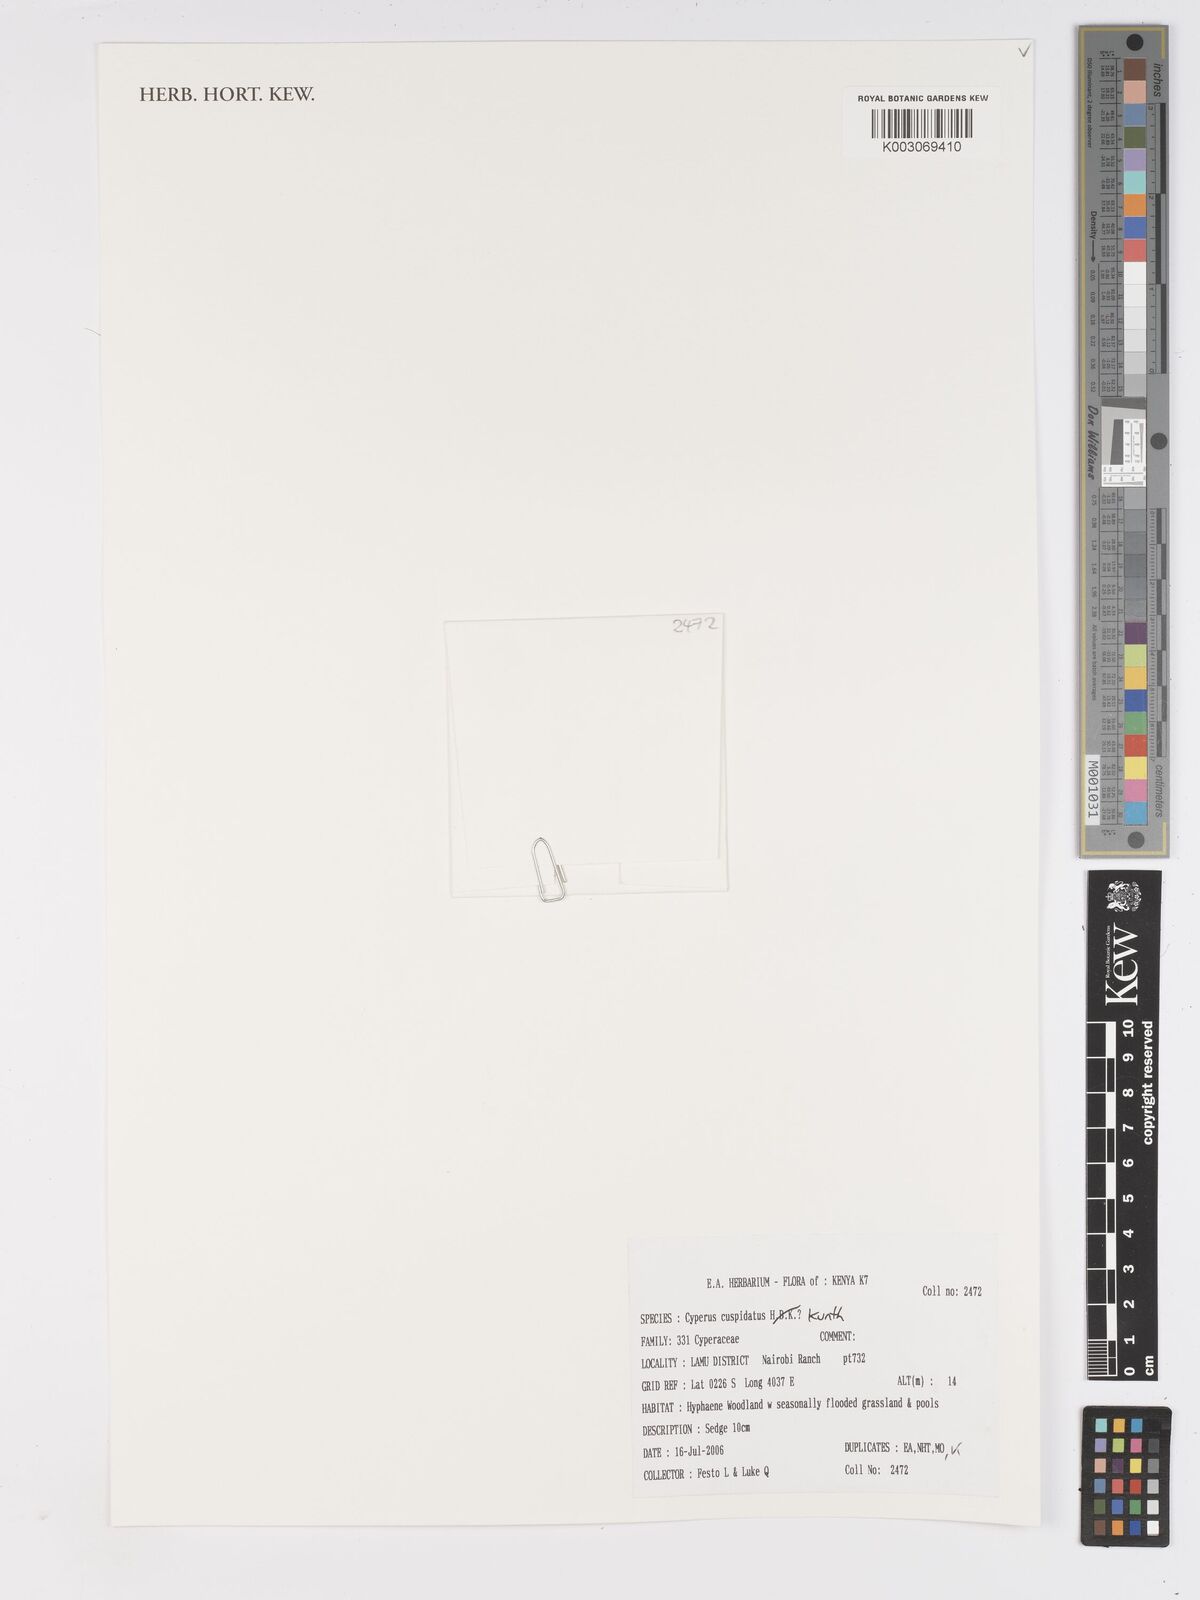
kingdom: Plantae
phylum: Tracheophyta
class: Liliopsida
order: Poales
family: Cyperaceae
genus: Cyperus
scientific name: Cyperus cuspidatus
